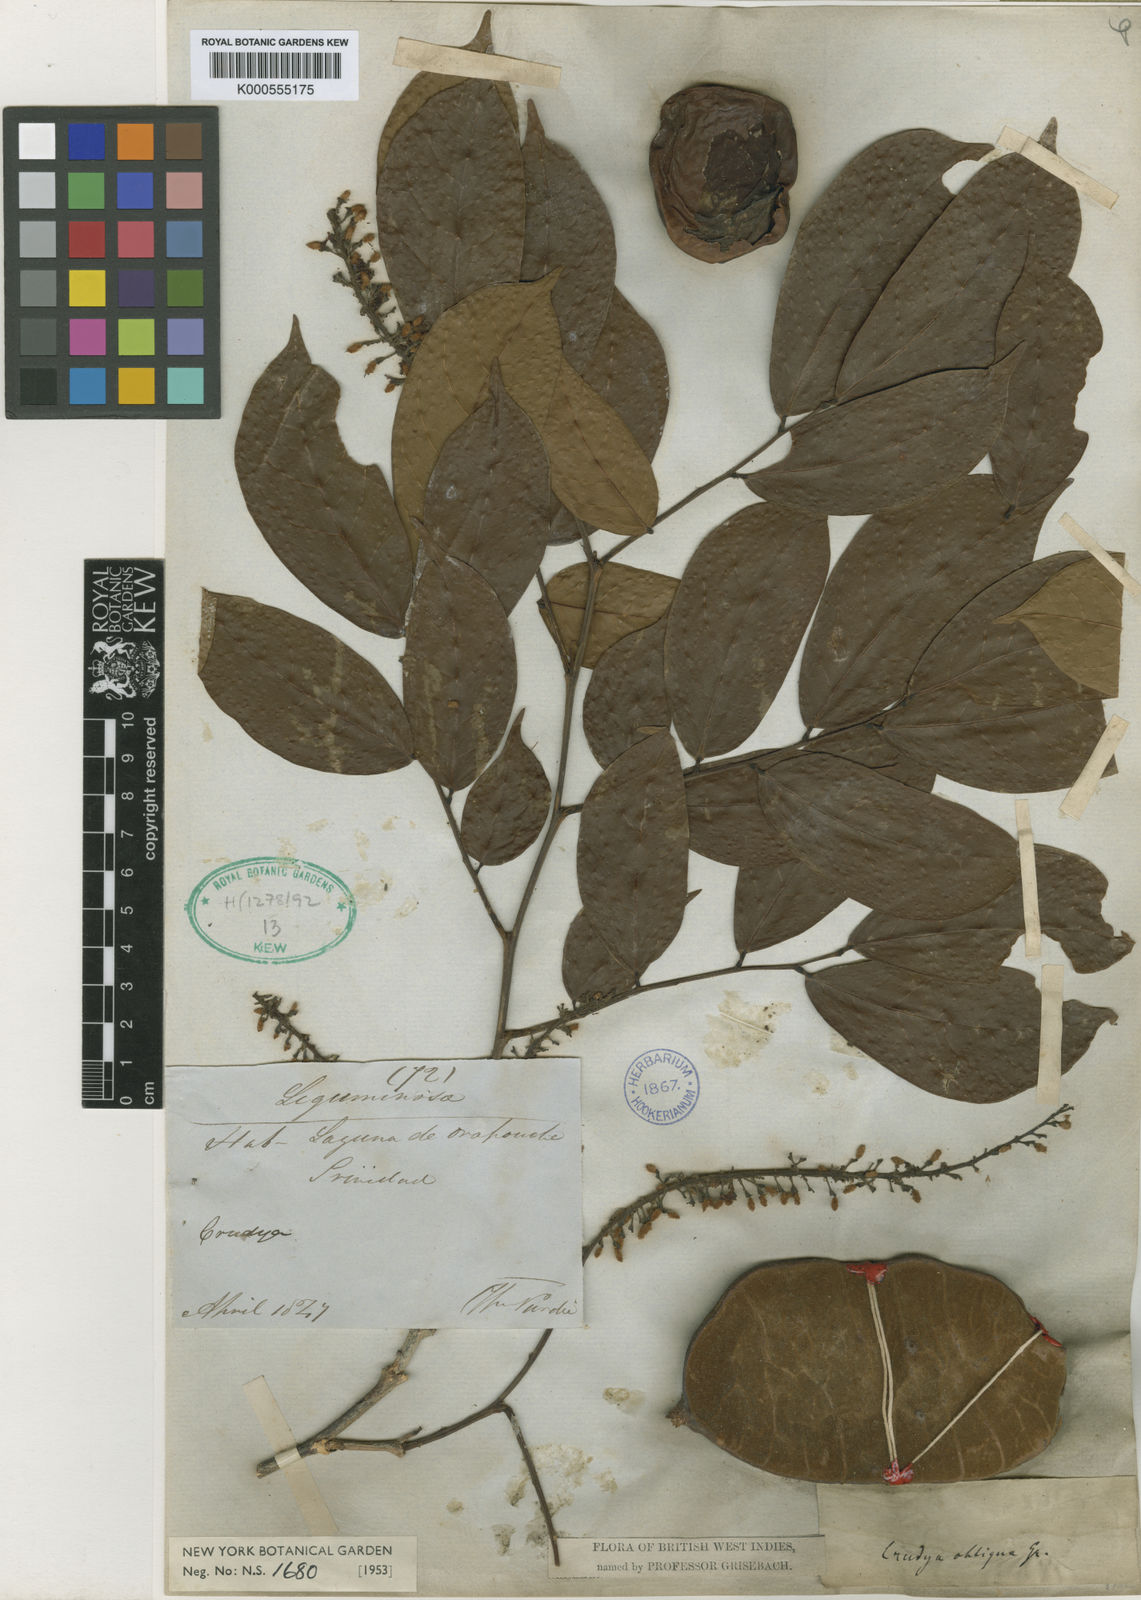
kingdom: Plantae
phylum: Tracheophyta
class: Magnoliopsida
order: Fabales
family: Fabaceae
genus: Crudia
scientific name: Crudia glaberrima
